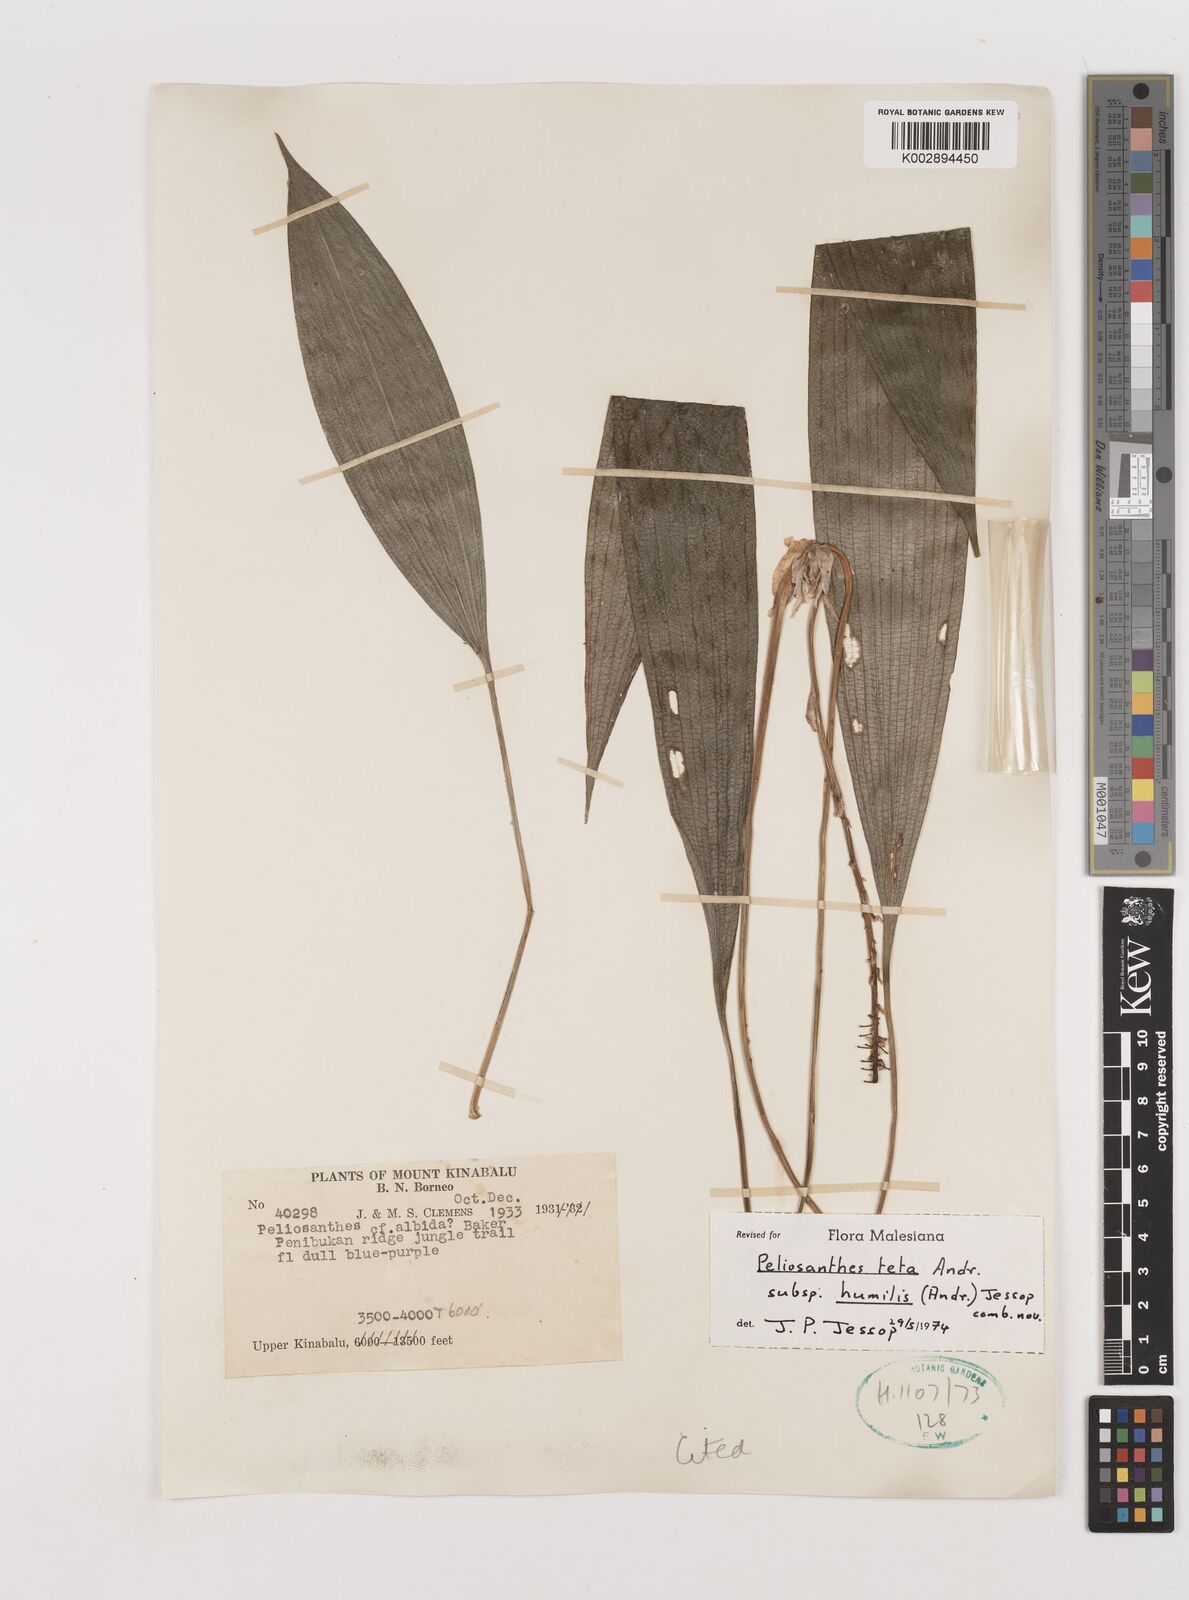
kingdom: Plantae
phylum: Tracheophyta
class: Liliopsida
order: Asparagales
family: Asparagaceae
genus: Peliosanthes
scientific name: Peliosanthes teta
